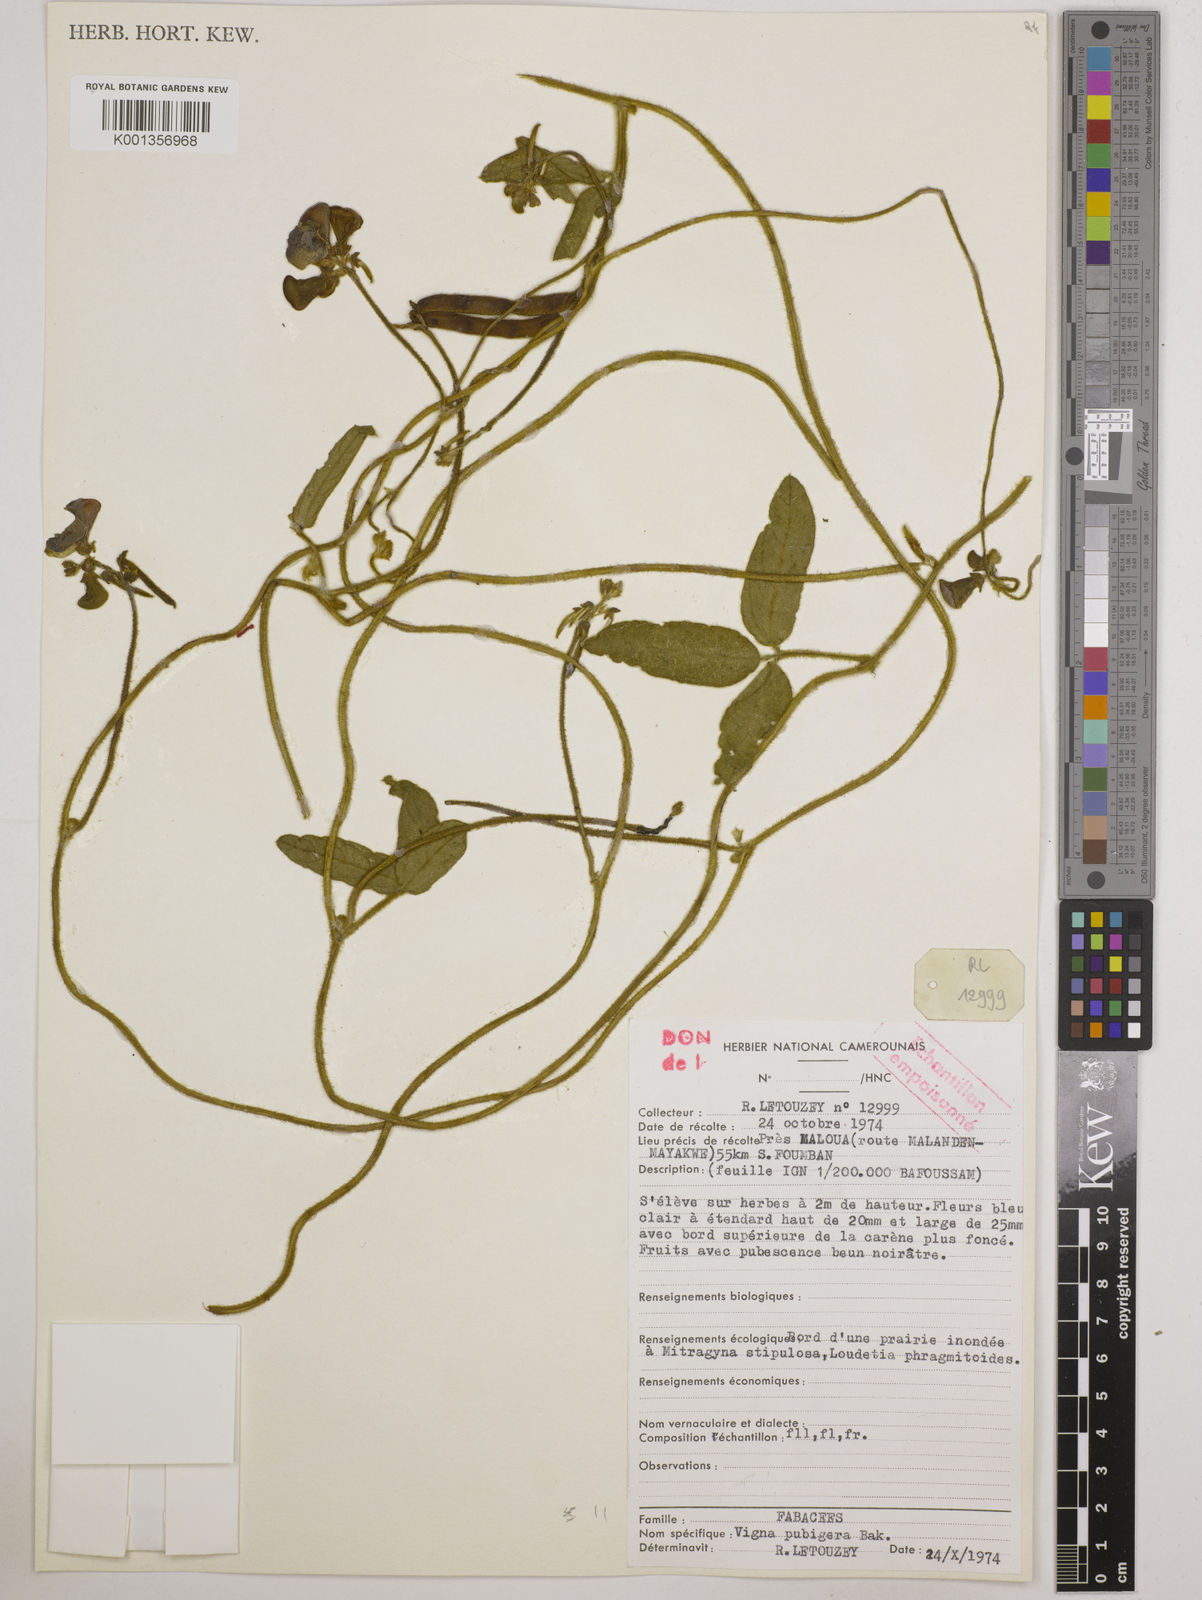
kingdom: Plantae
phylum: Tracheophyta
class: Magnoliopsida
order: Fabales
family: Fabaceae
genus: Vigna
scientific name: Vigna ambacensis
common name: Tsarkiyan zomo
